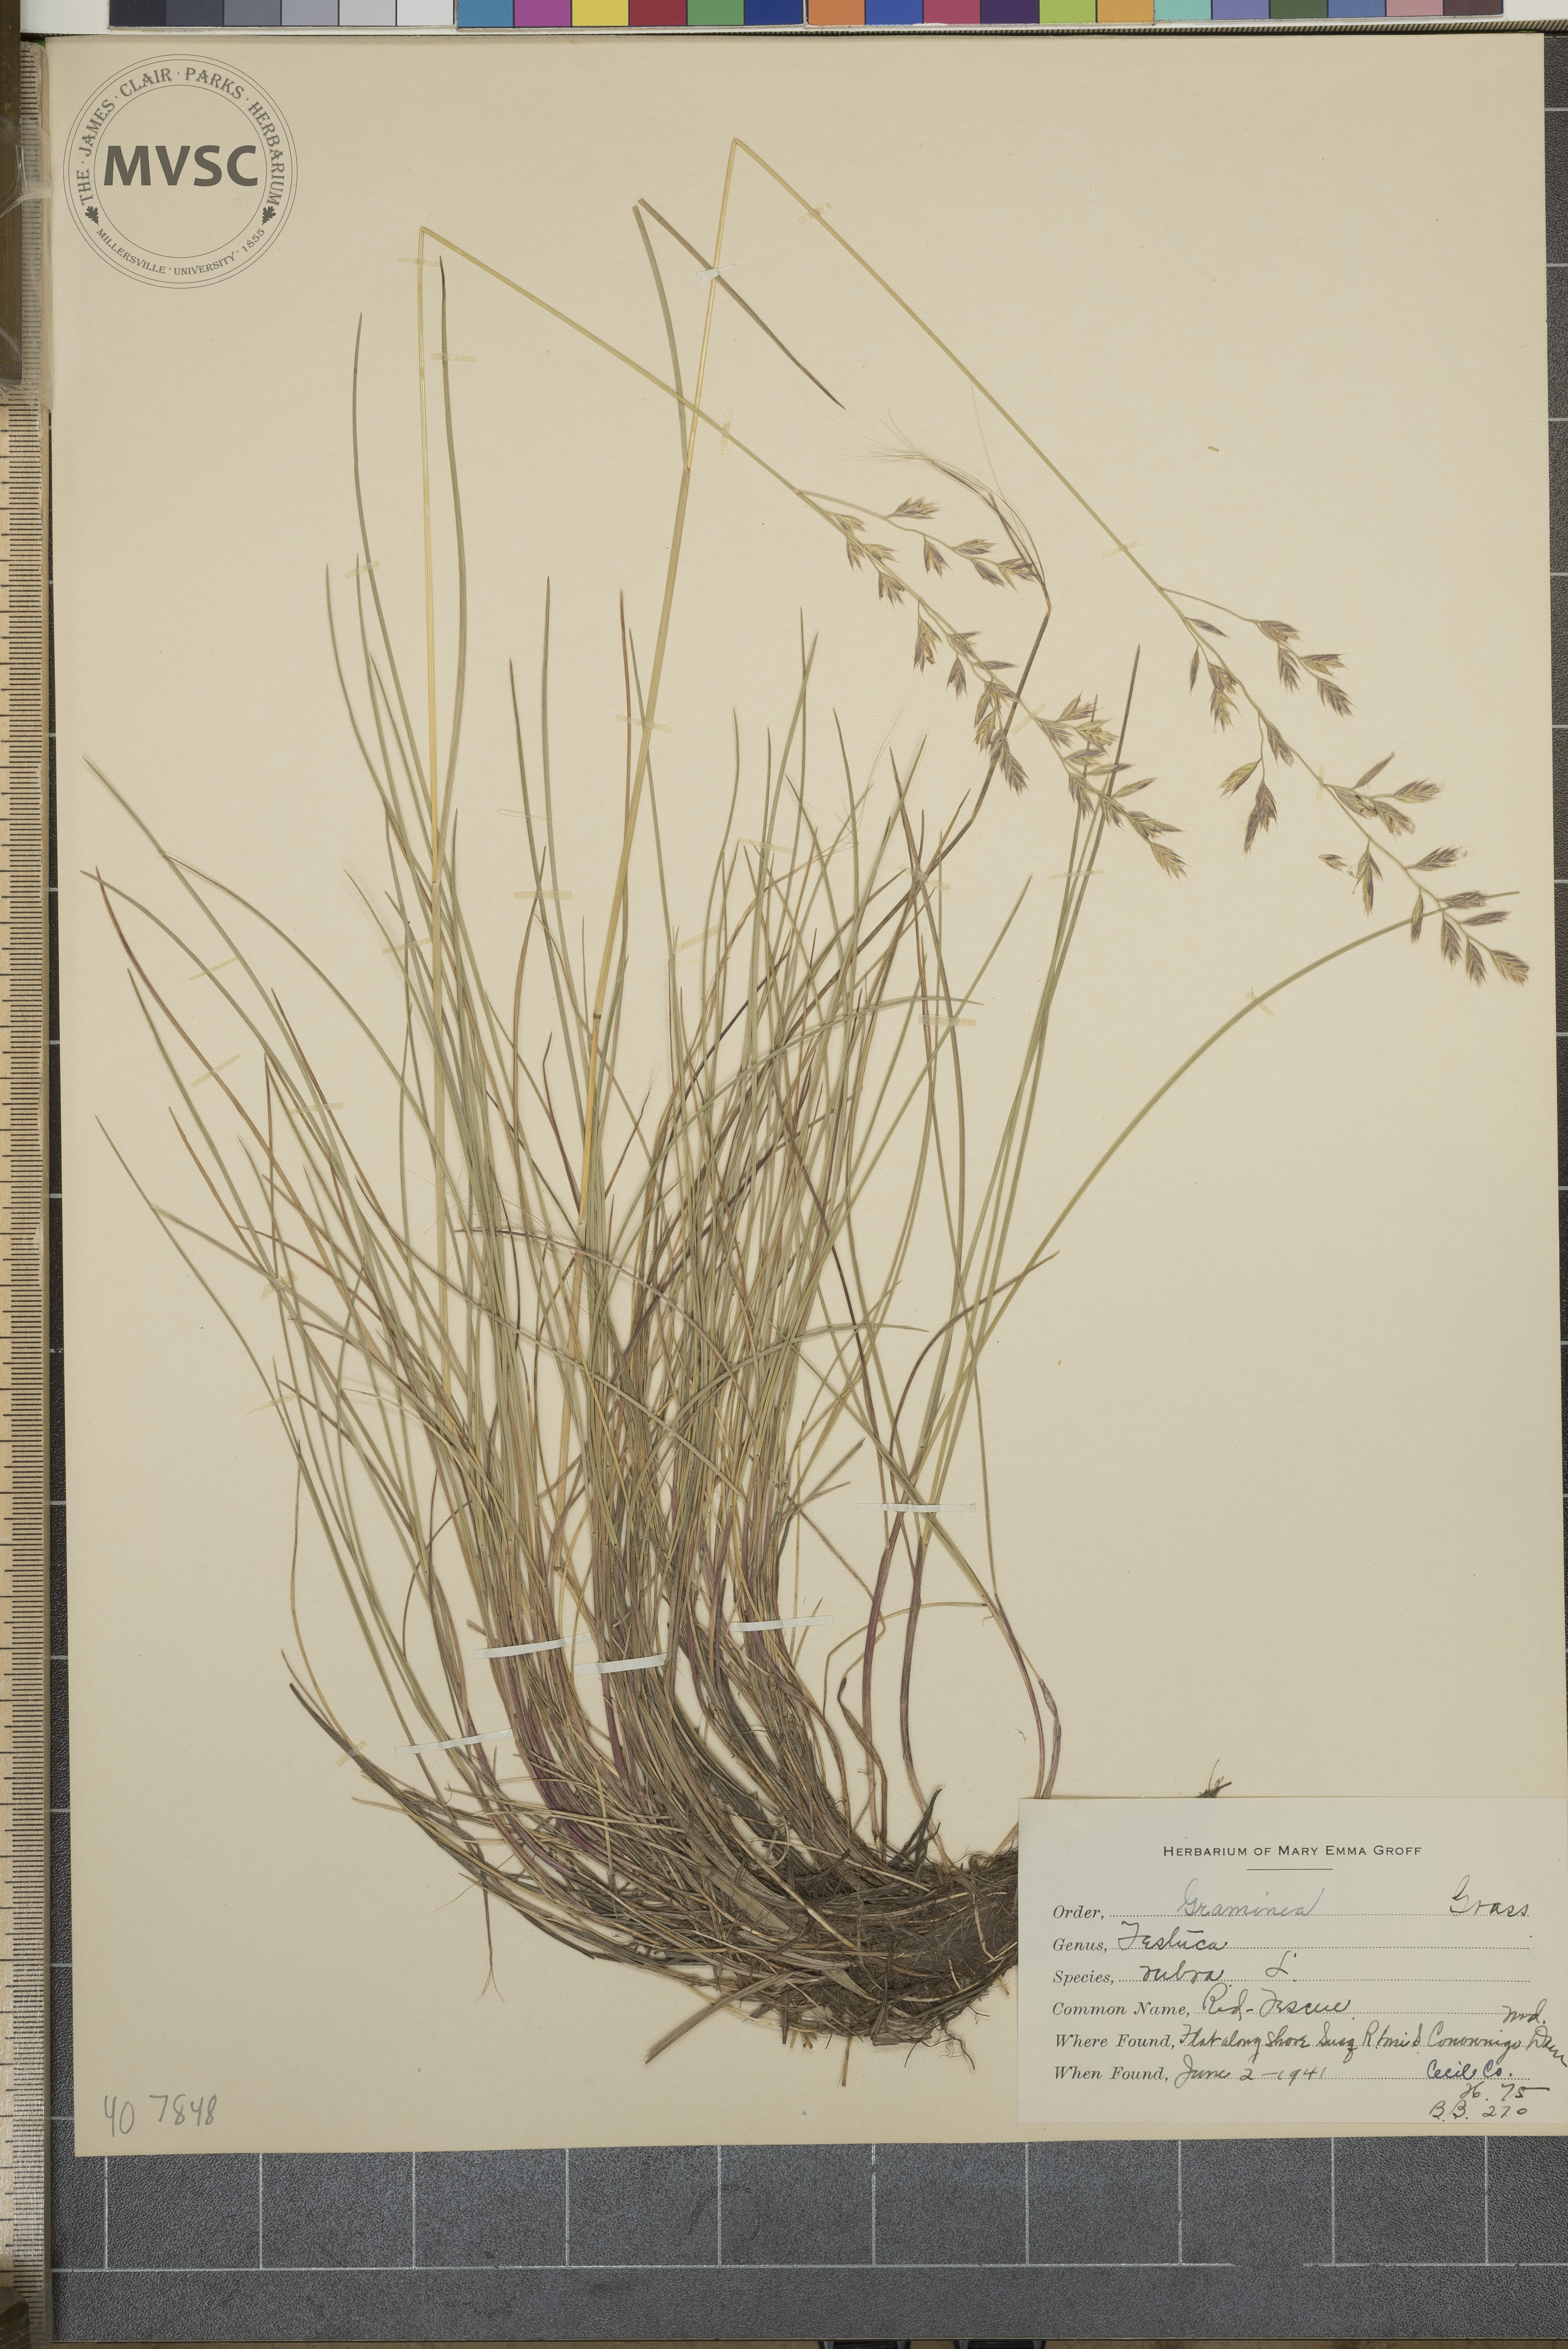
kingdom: Plantae
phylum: Tracheophyta
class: Liliopsida
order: Poales
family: Poaceae
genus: Festuca
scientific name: Festuca rubra
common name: Red fescue
